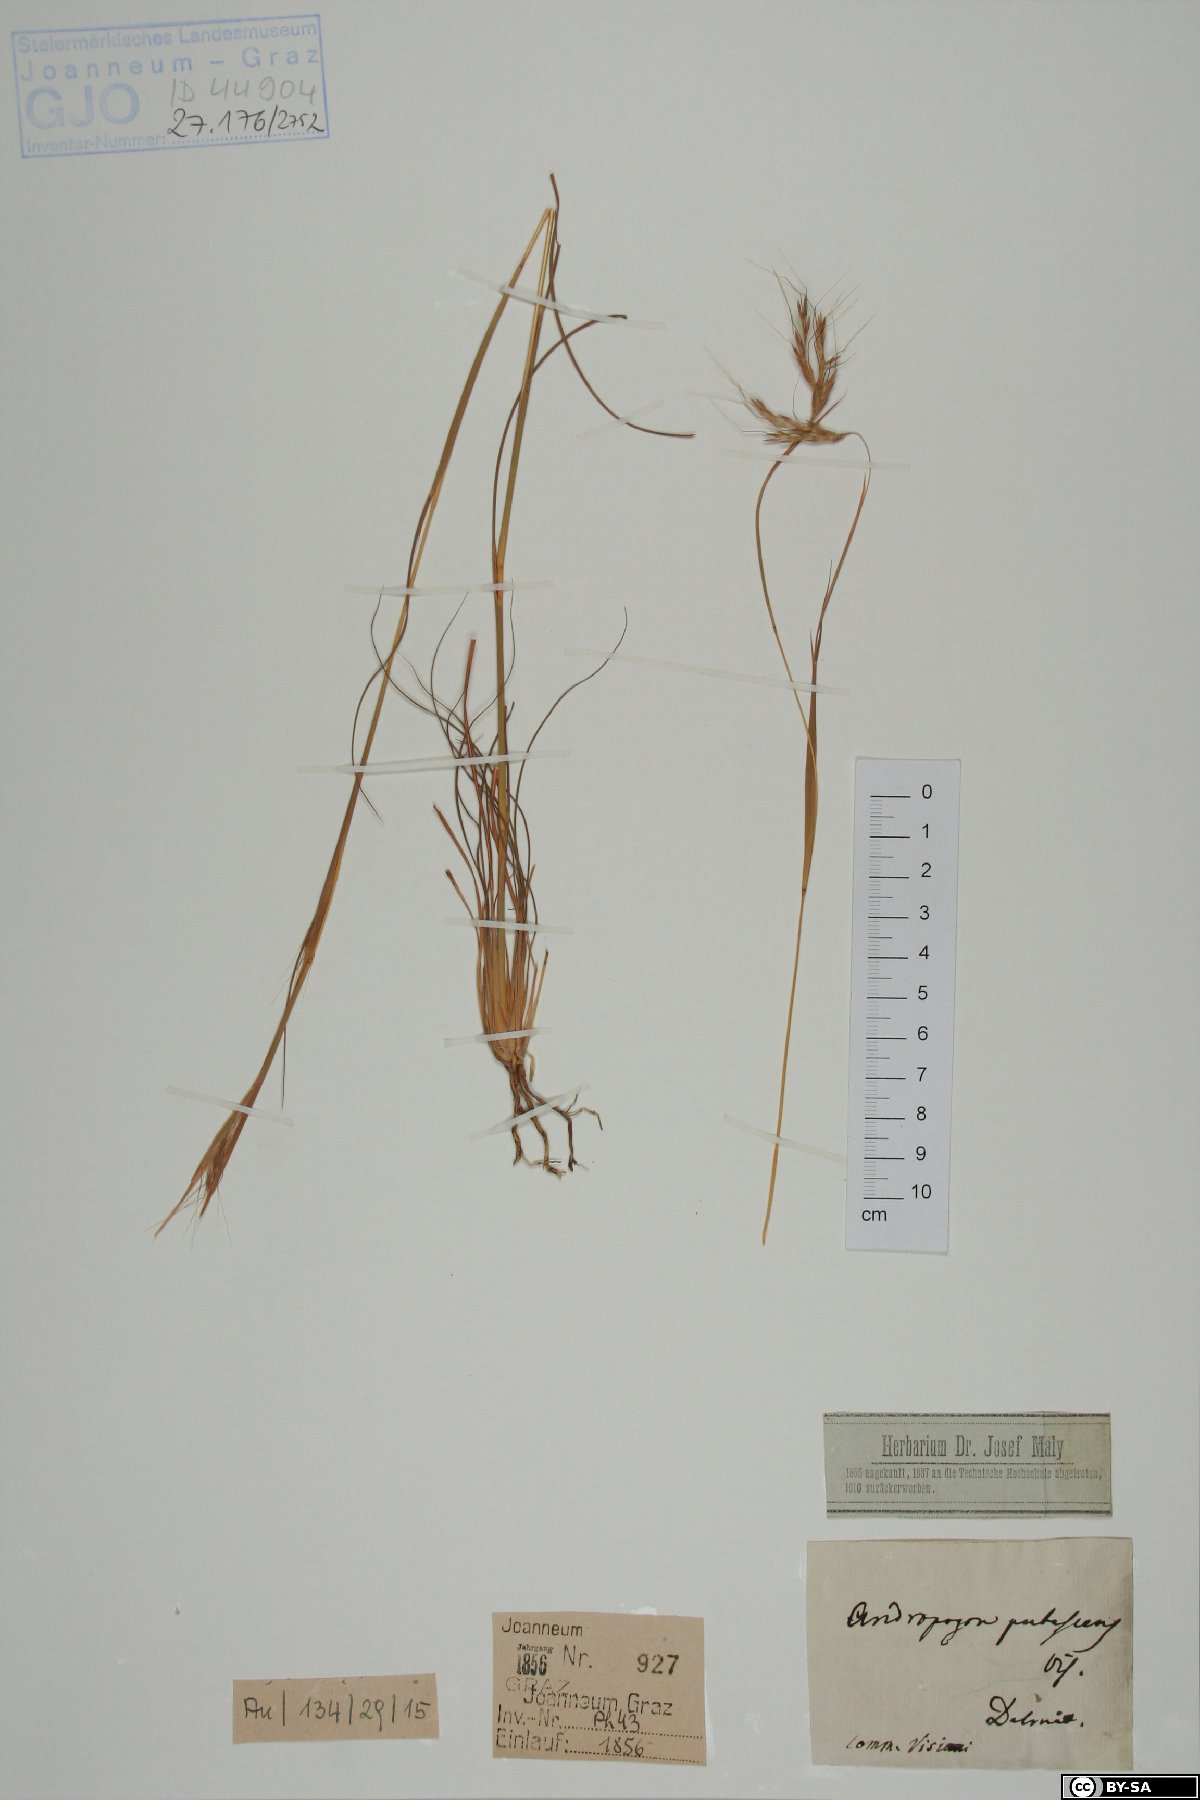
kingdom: Plantae
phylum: Tracheophyta
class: Liliopsida
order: Poales
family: Poaceae
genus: Hyparrhenia
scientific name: Hyparrhenia hirta
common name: Thatching grass
